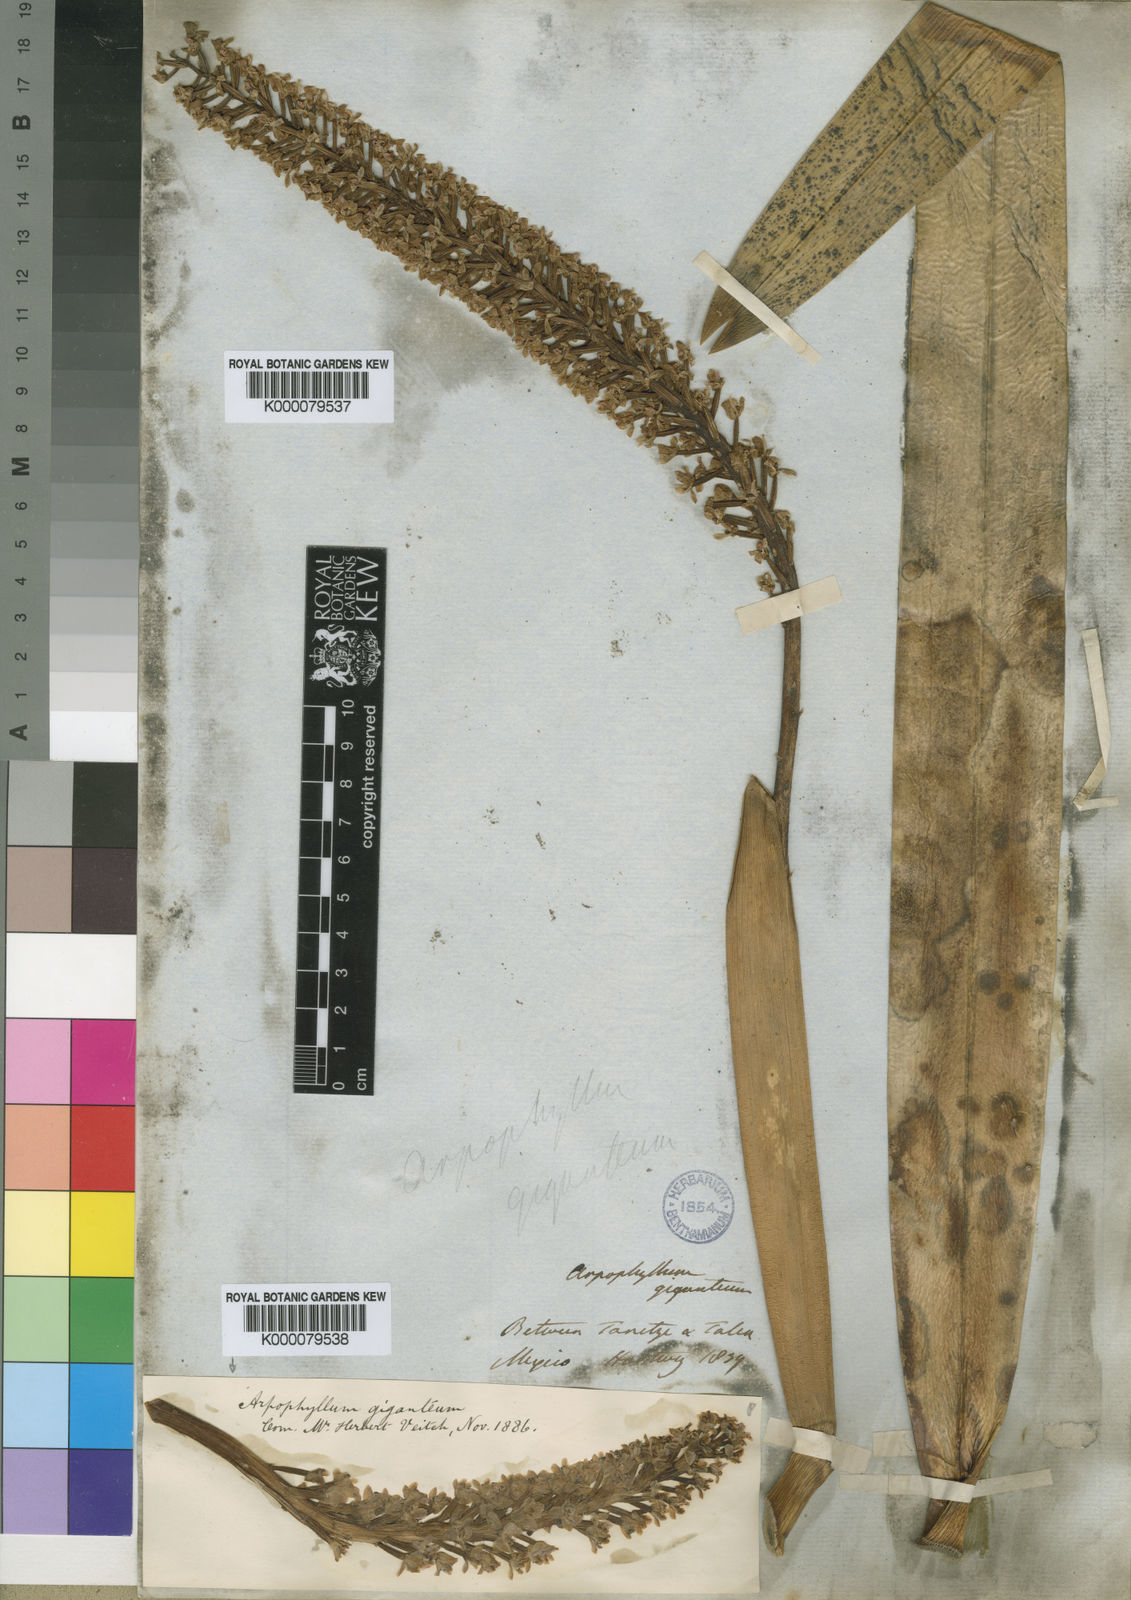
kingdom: Plantae
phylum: Tracheophyta
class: Liliopsida
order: Asparagales
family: Orchidaceae
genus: Arpophyllum
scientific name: Arpophyllum giganteum
